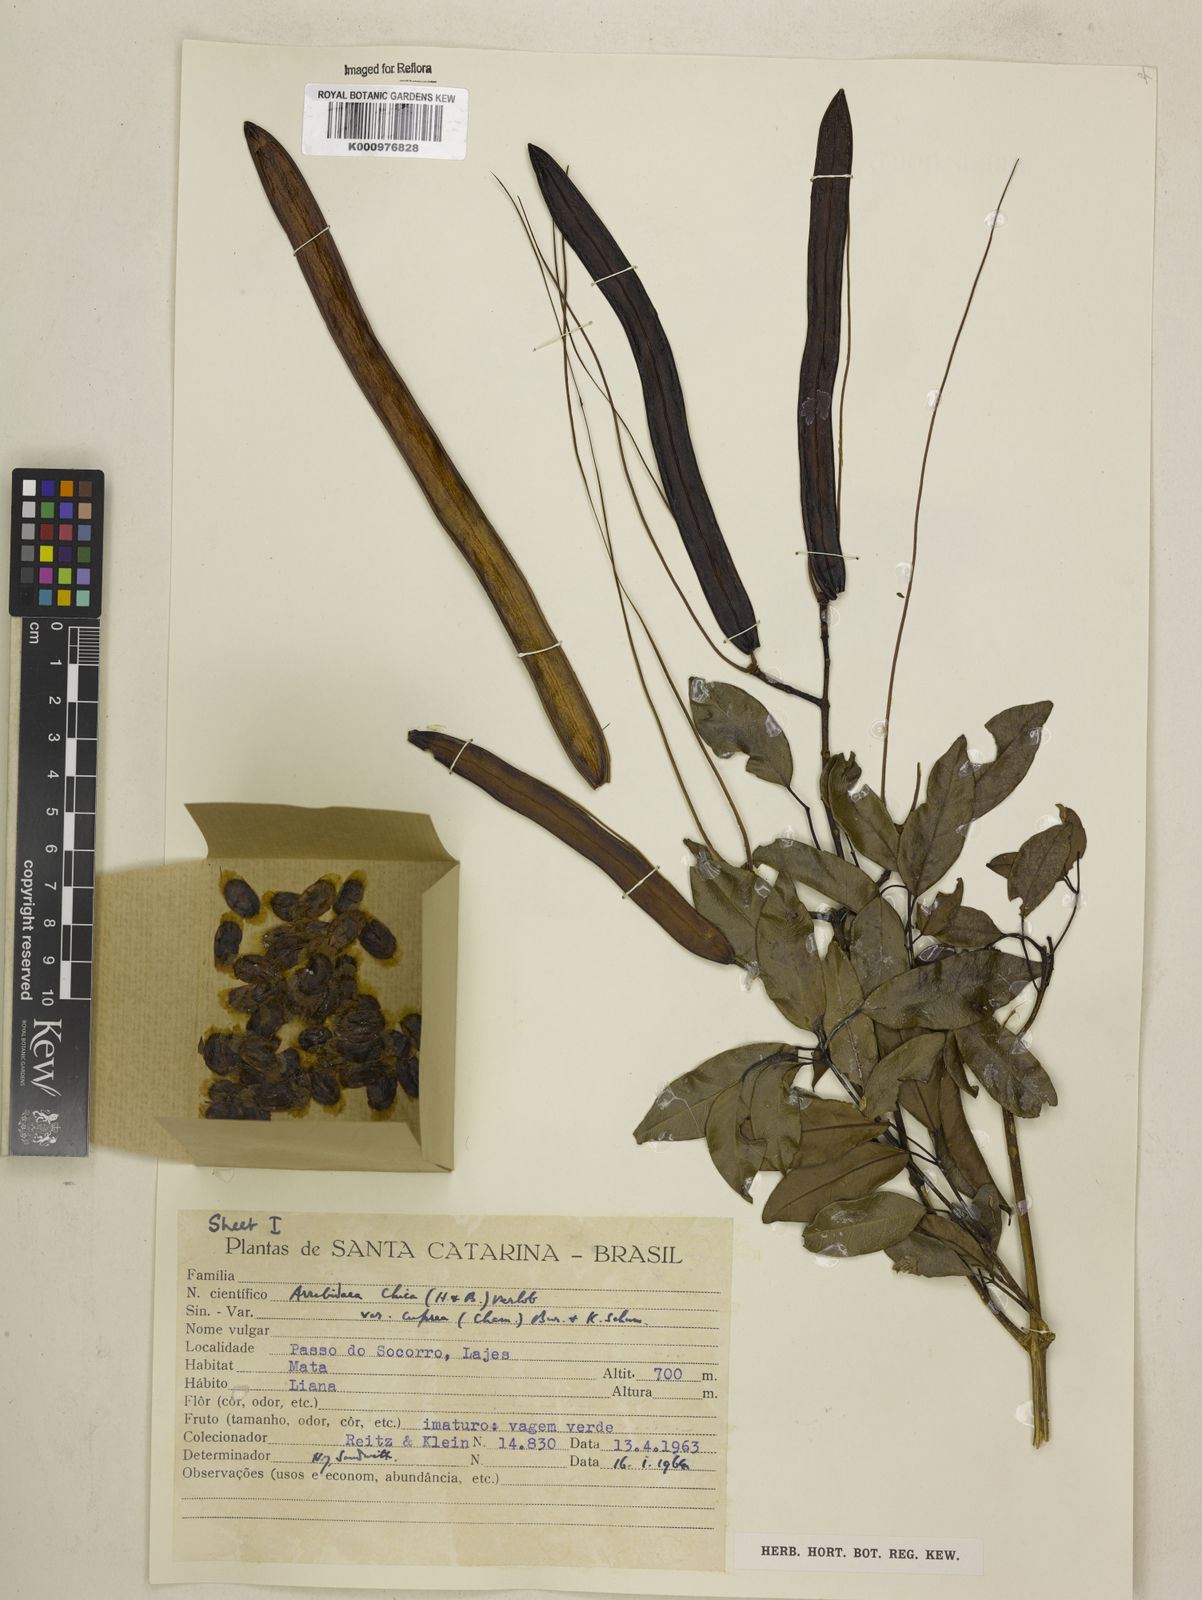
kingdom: Plantae
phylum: Tracheophyta
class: Magnoliopsida
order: Lamiales
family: Bignoniaceae
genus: Fridericia
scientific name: Fridericia chica
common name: Cricketvine
